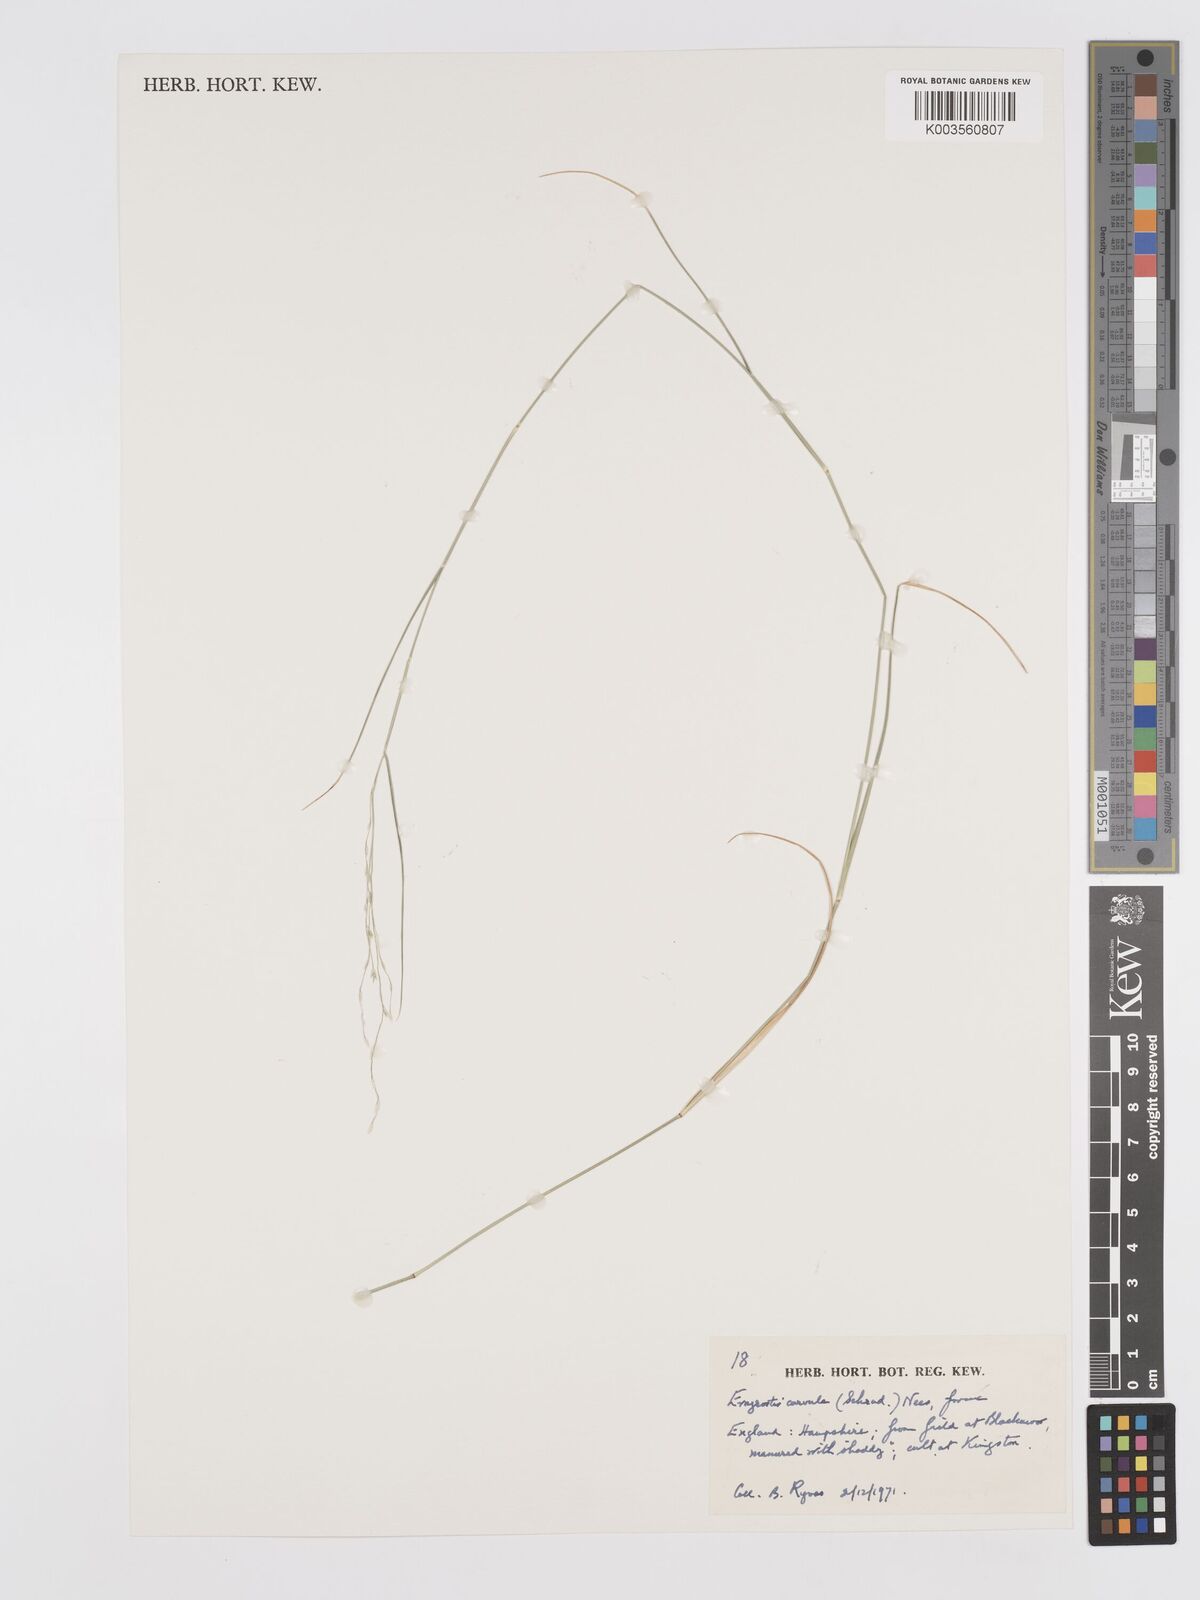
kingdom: Plantae
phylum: Tracheophyta
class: Liliopsida
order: Poales
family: Poaceae
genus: Eragrostis
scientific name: Eragrostis curvula
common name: African love-grass
